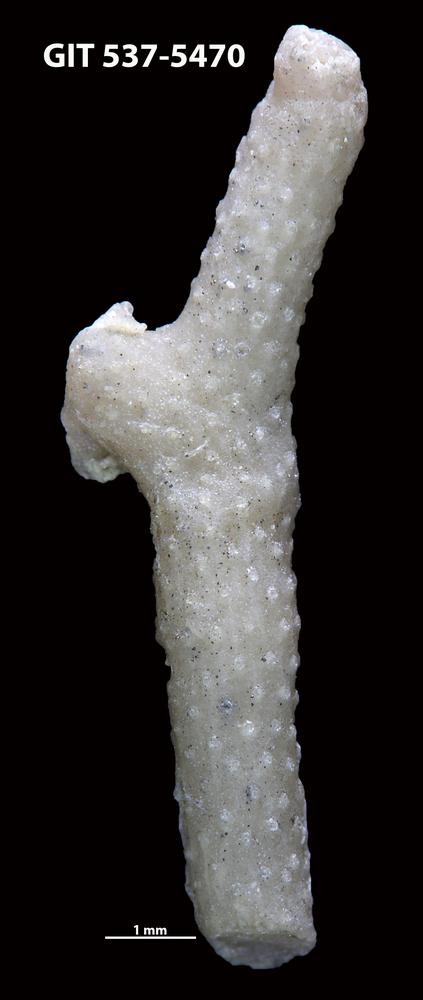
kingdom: Animalia
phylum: Bryozoa
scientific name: Bryozoa
